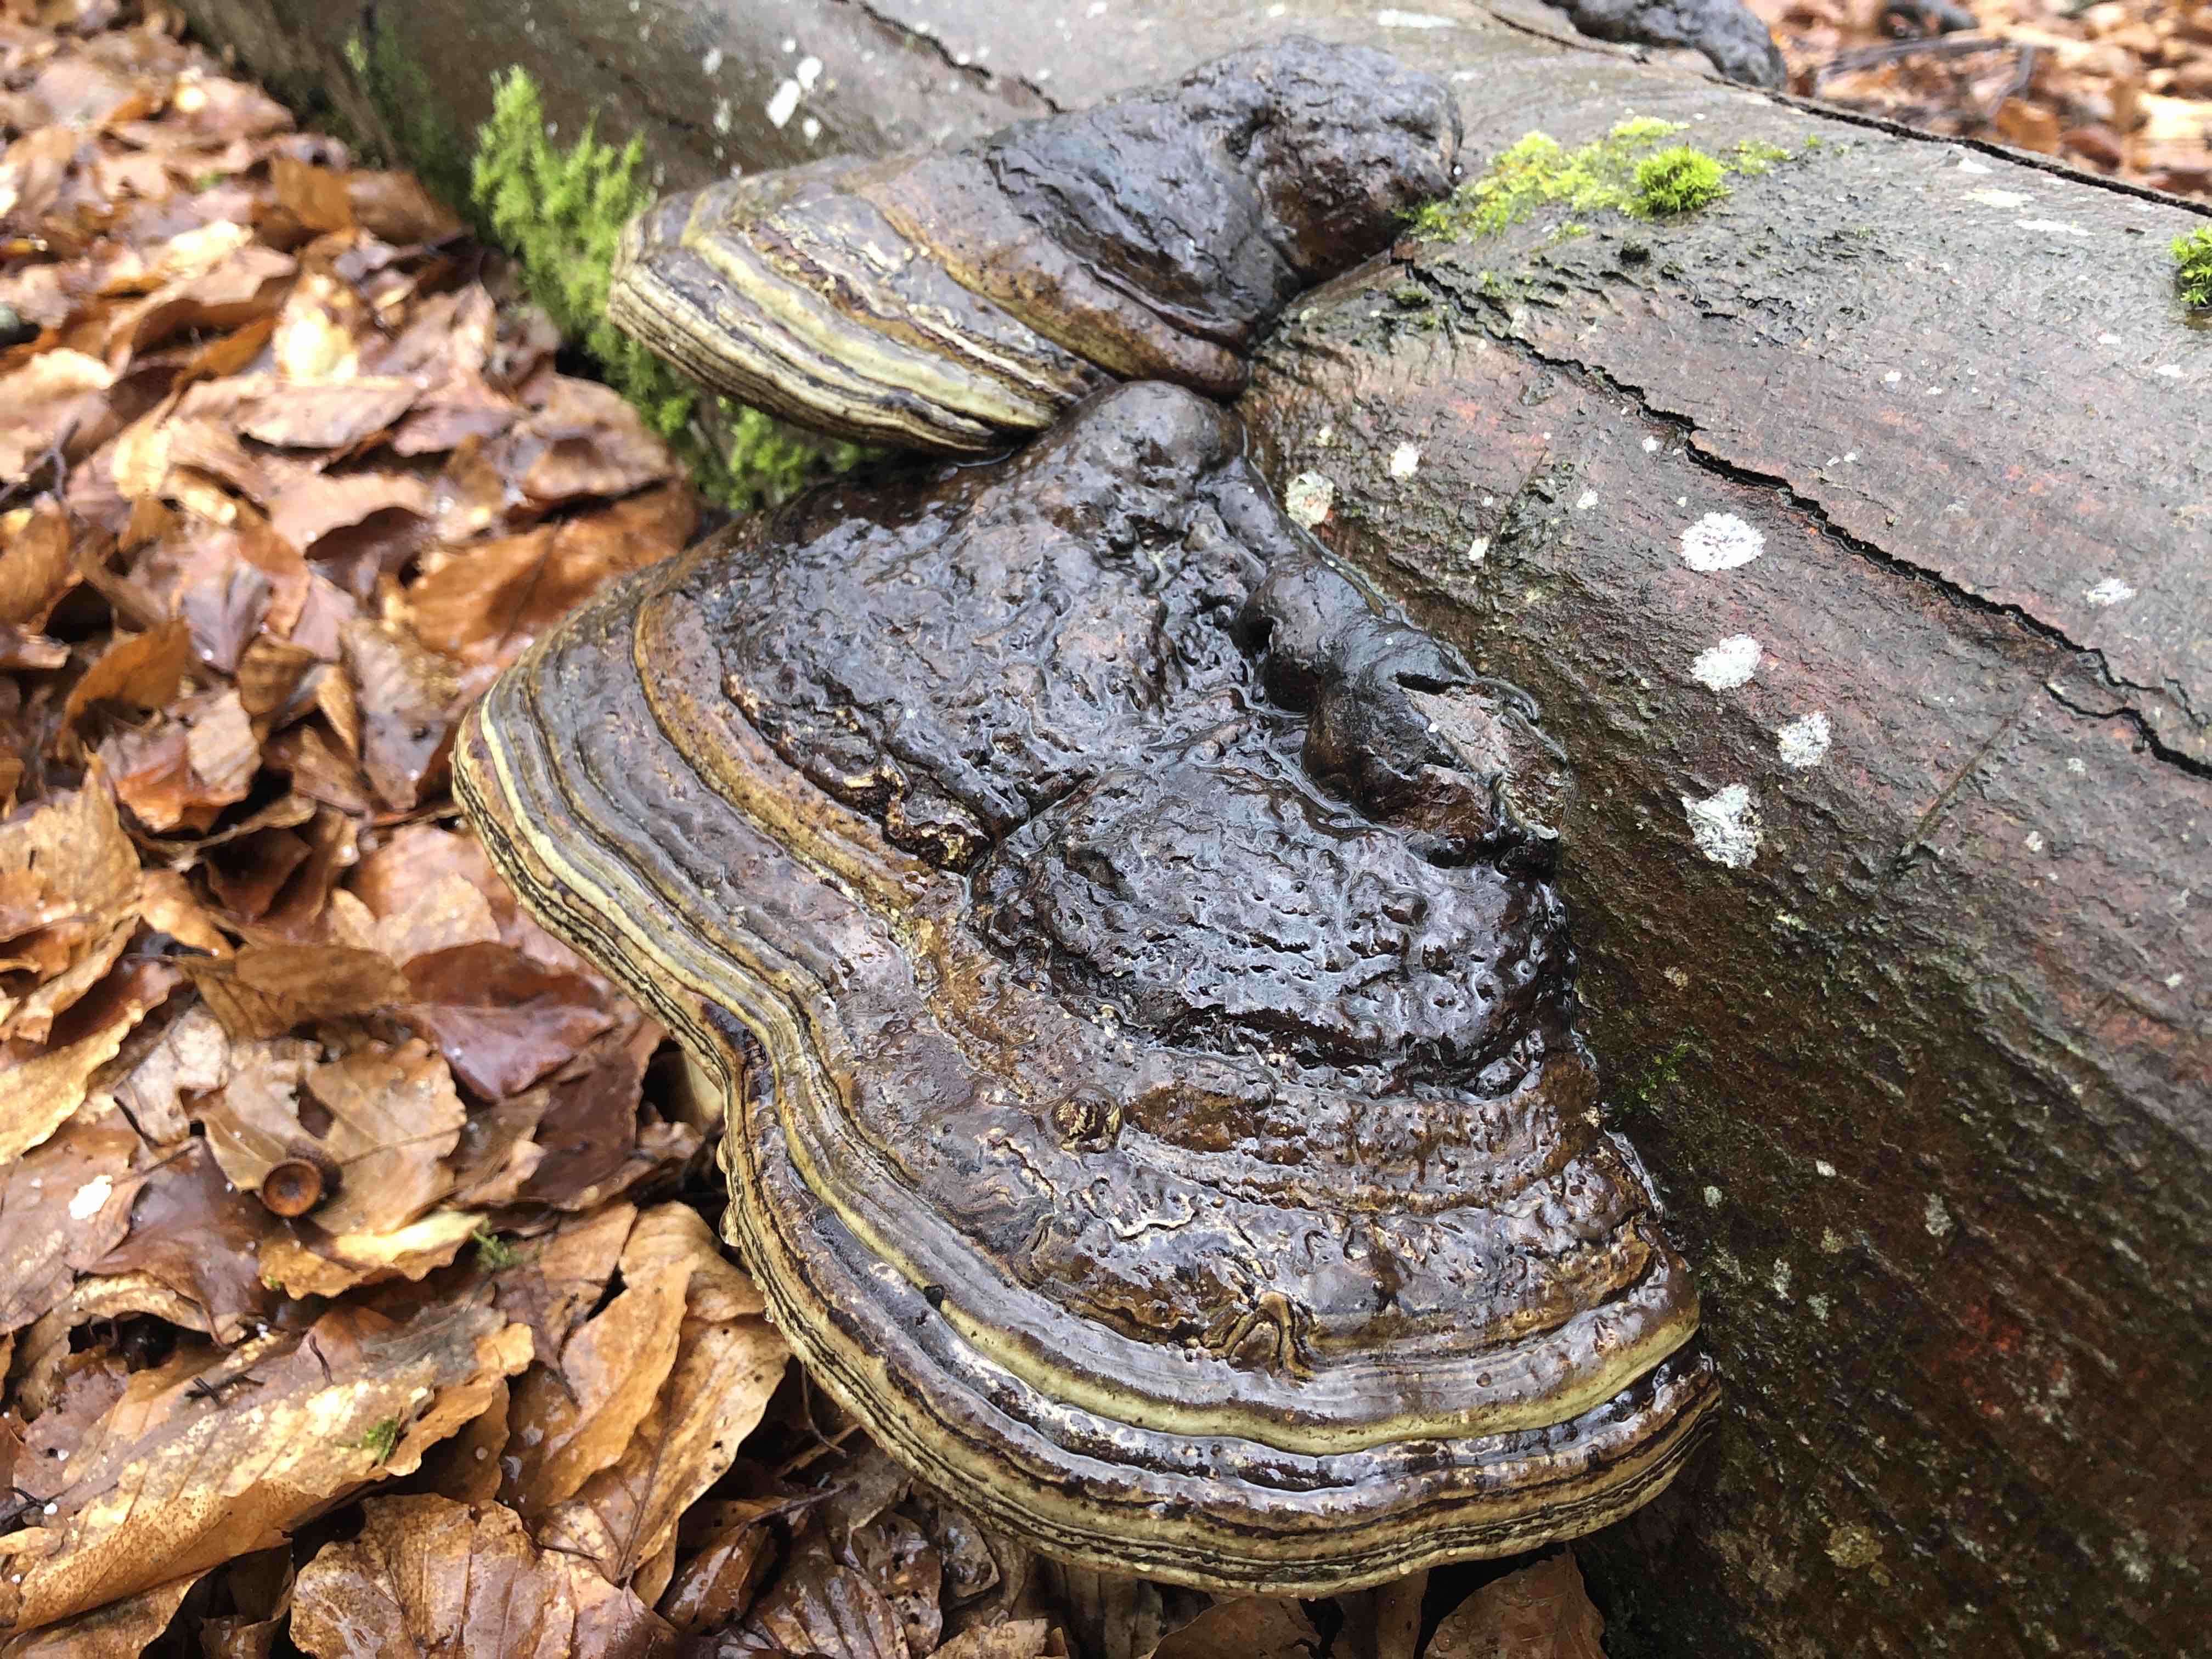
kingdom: Fungi
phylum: Basidiomycota
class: Agaricomycetes
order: Polyporales
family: Polyporaceae
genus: Fomes
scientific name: Fomes fomentarius
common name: tøndersvamp
